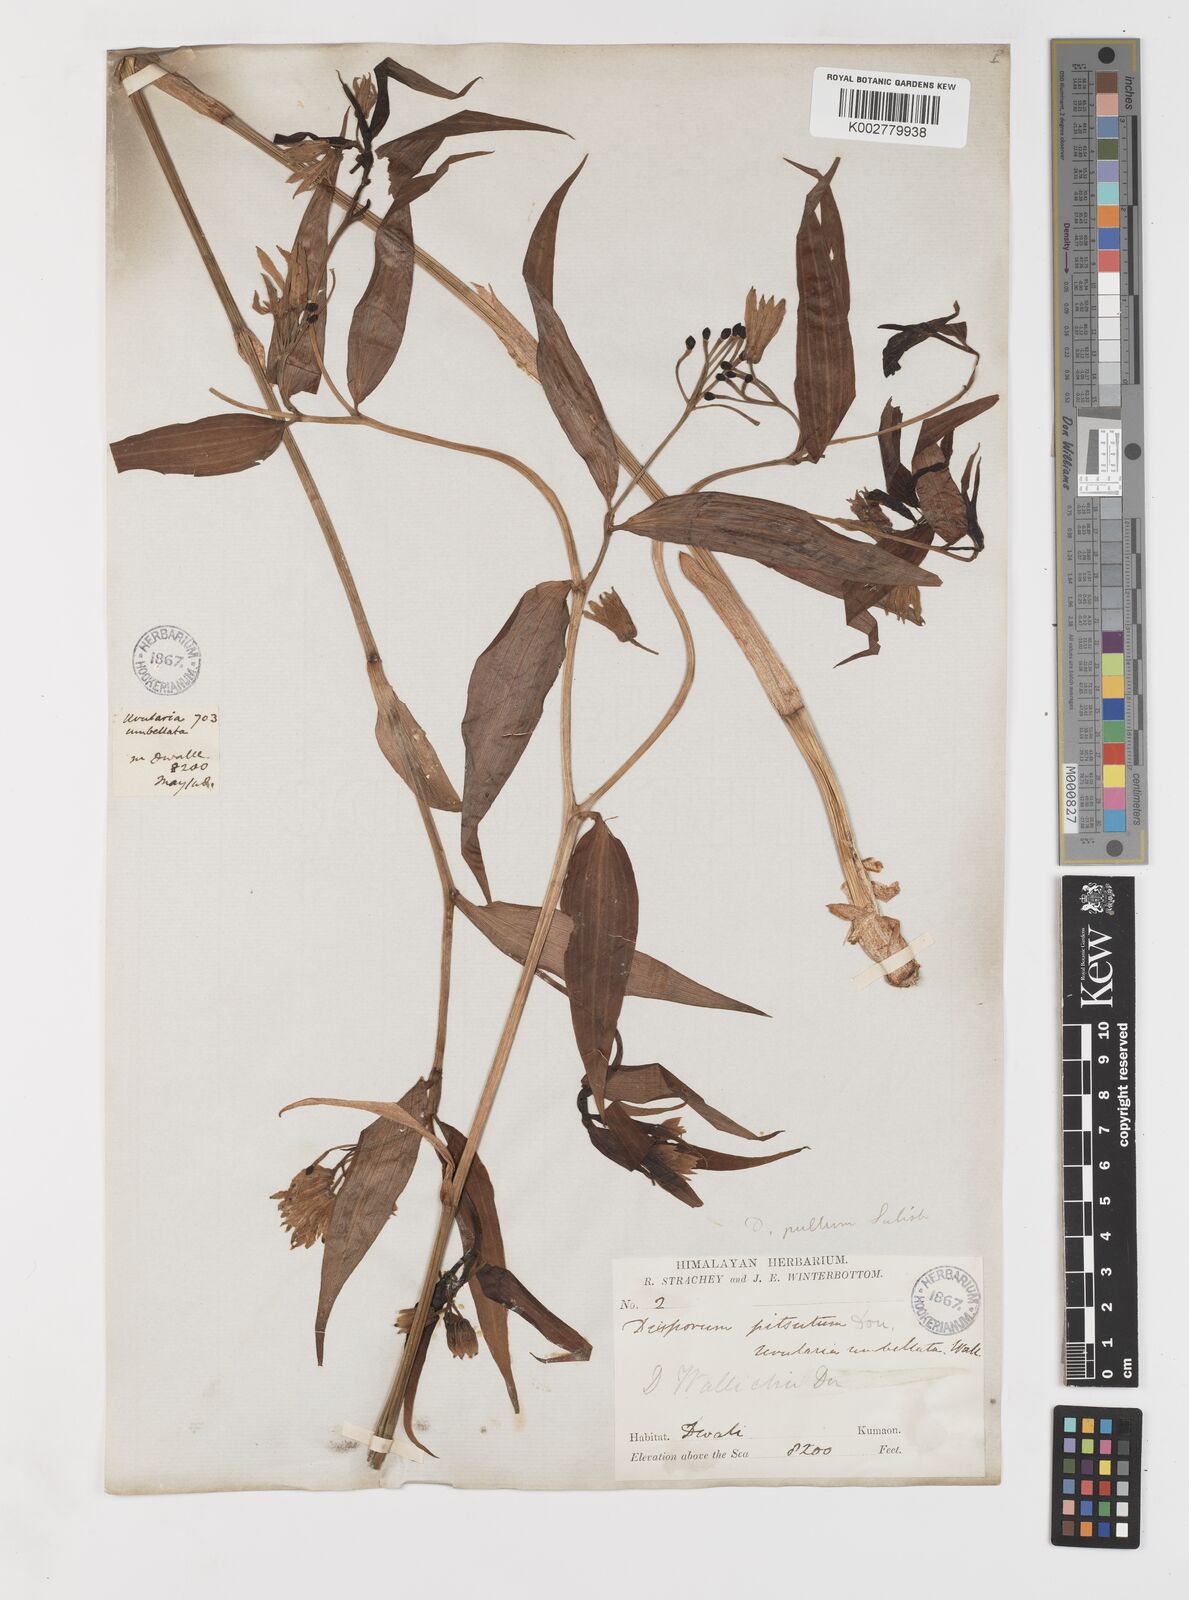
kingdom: Plantae
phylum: Tracheophyta
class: Liliopsida
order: Liliales
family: Colchicaceae
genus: Disporum
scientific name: Disporum cantoniense
